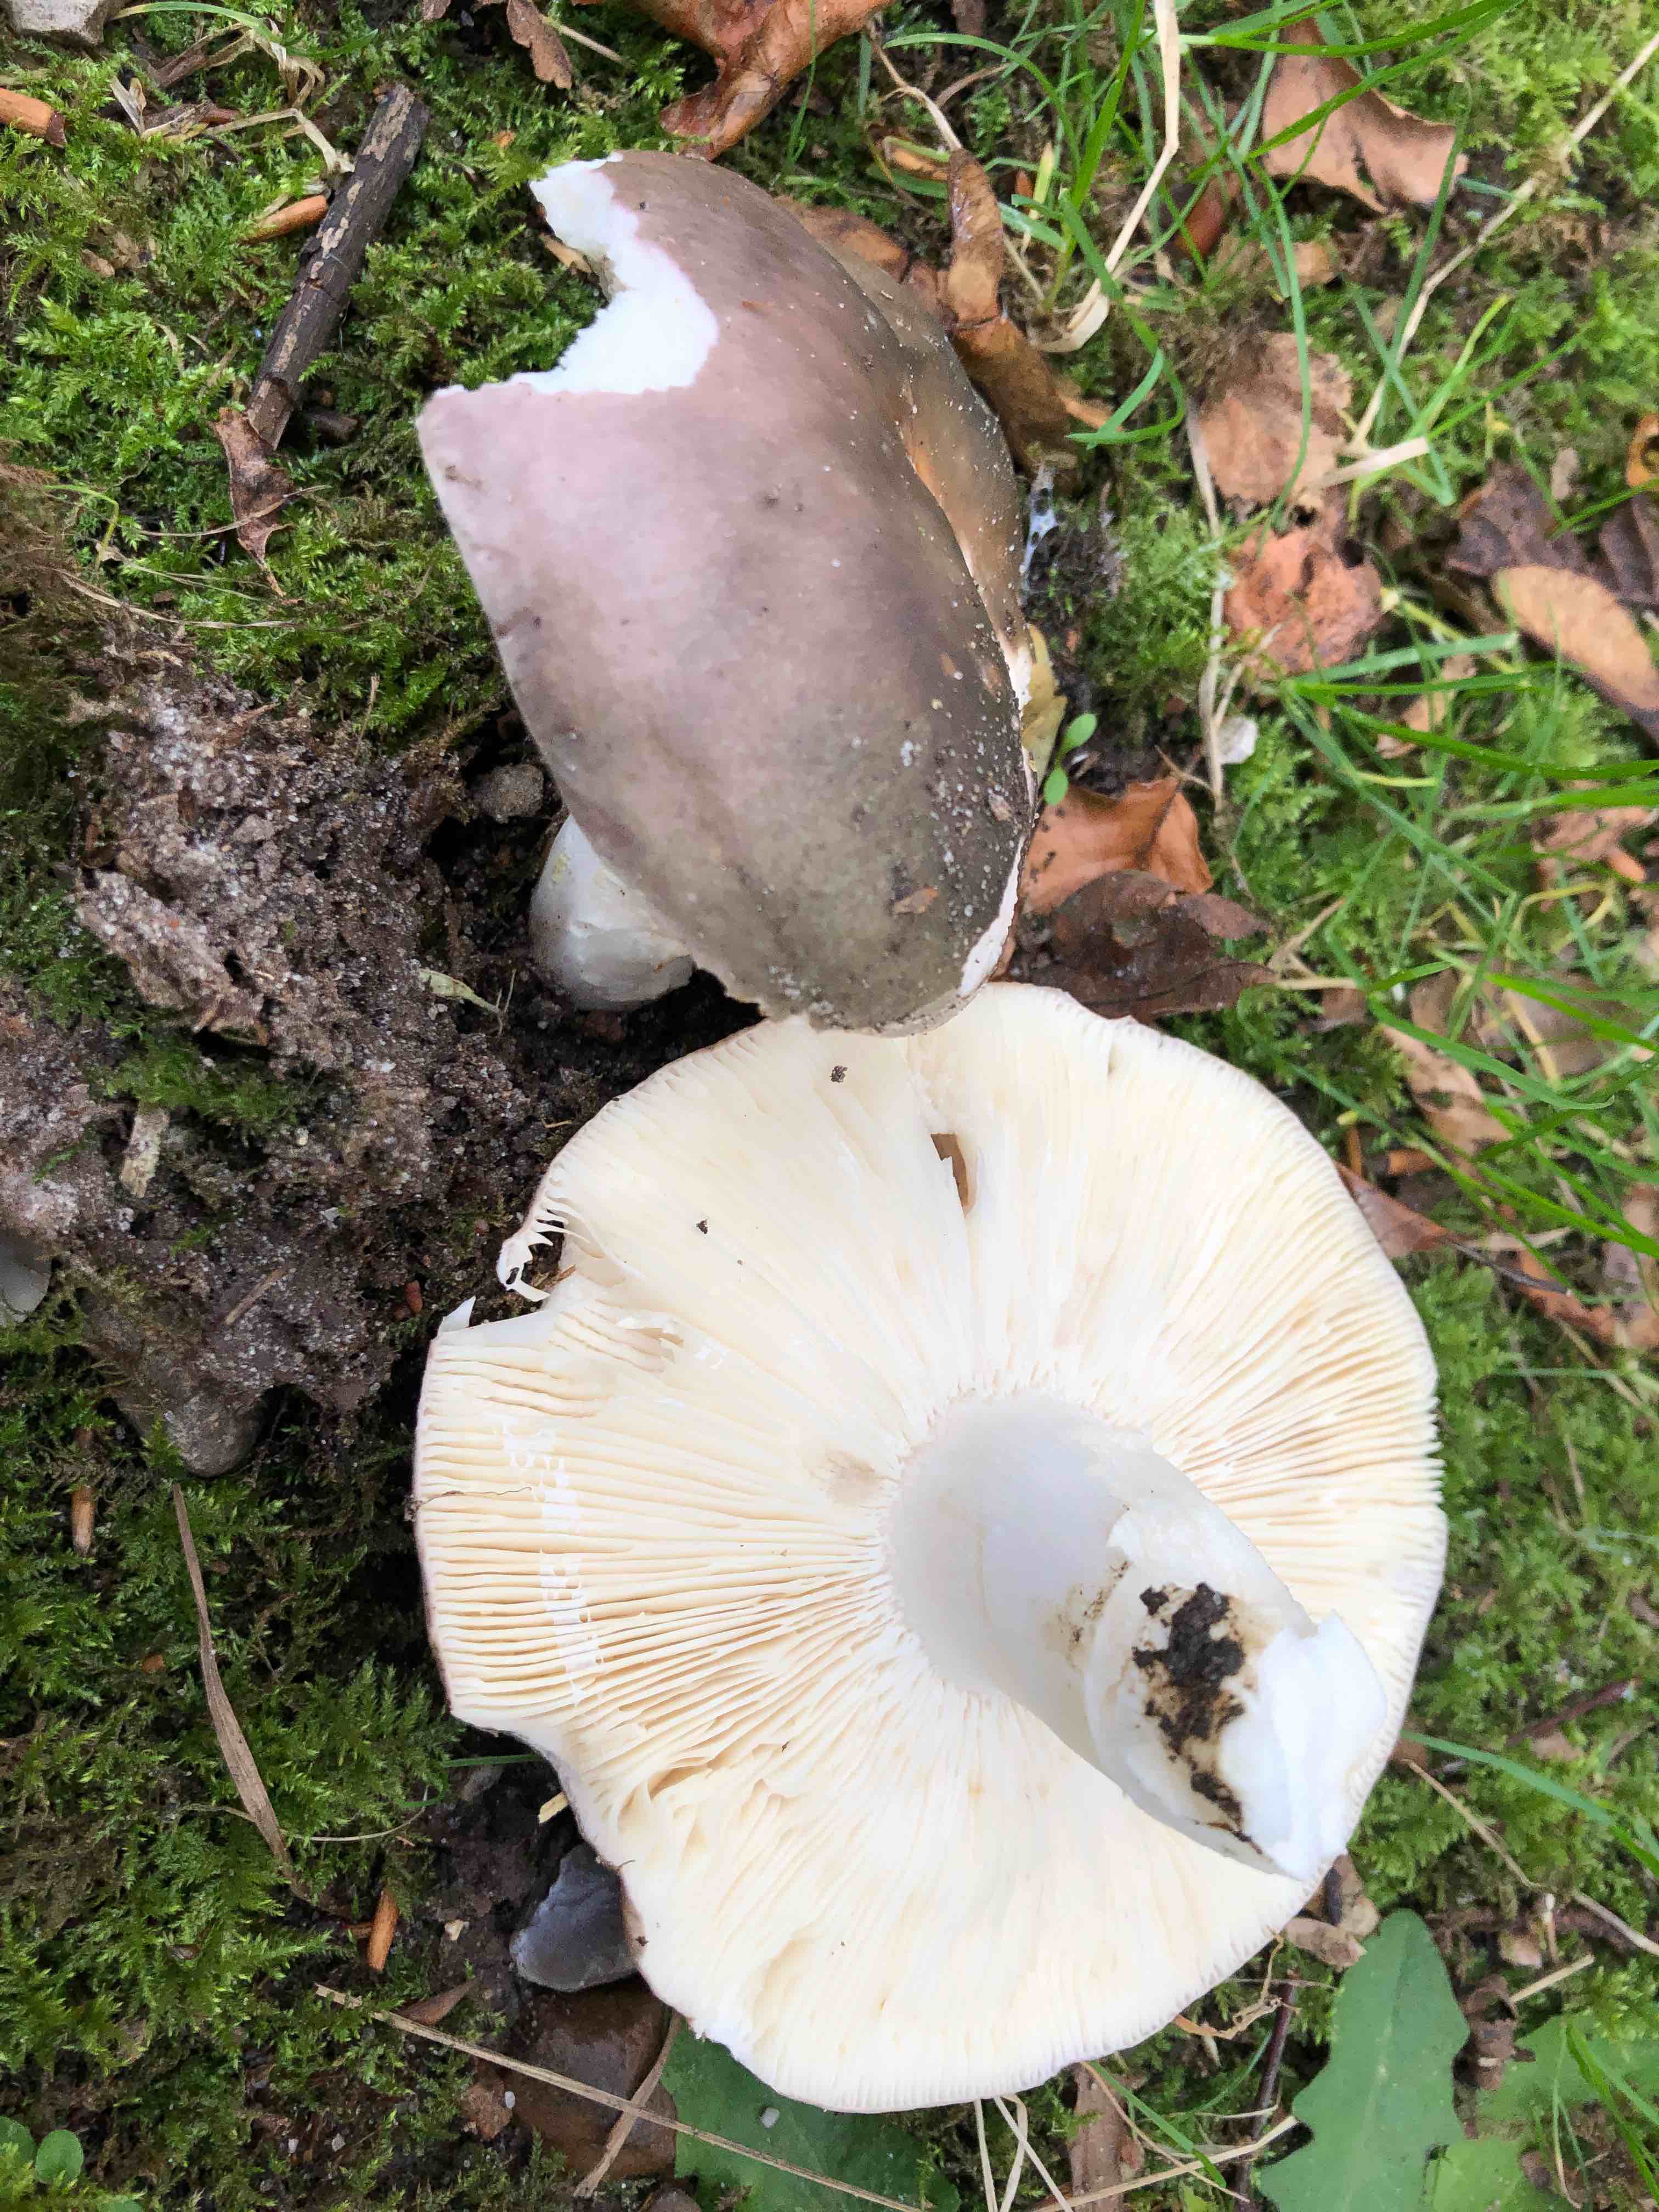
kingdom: Fungi
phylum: Basidiomycota
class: Agaricomycetes
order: Russulales
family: Russulaceae
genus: Russula
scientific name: Russula cyanoxantha
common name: broget skørhat
